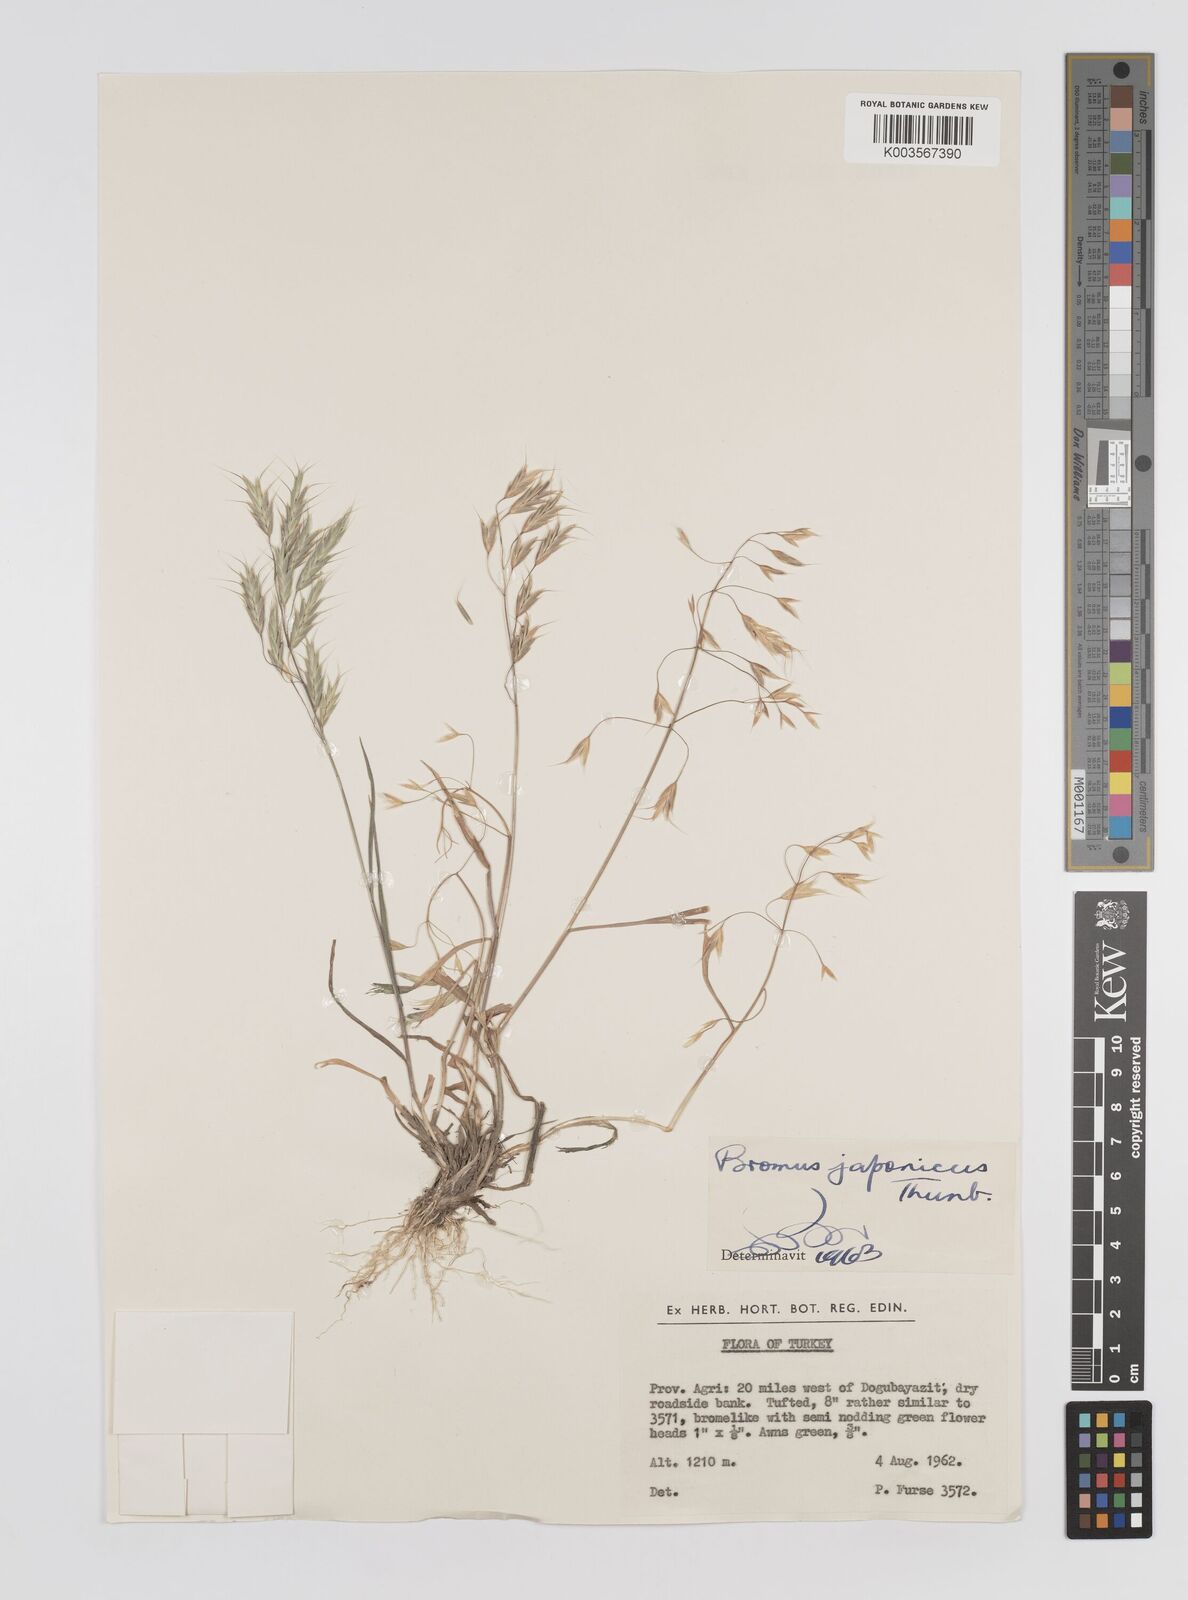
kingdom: Plantae
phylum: Tracheophyta
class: Liliopsida
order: Poales
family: Poaceae
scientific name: Poaceae
